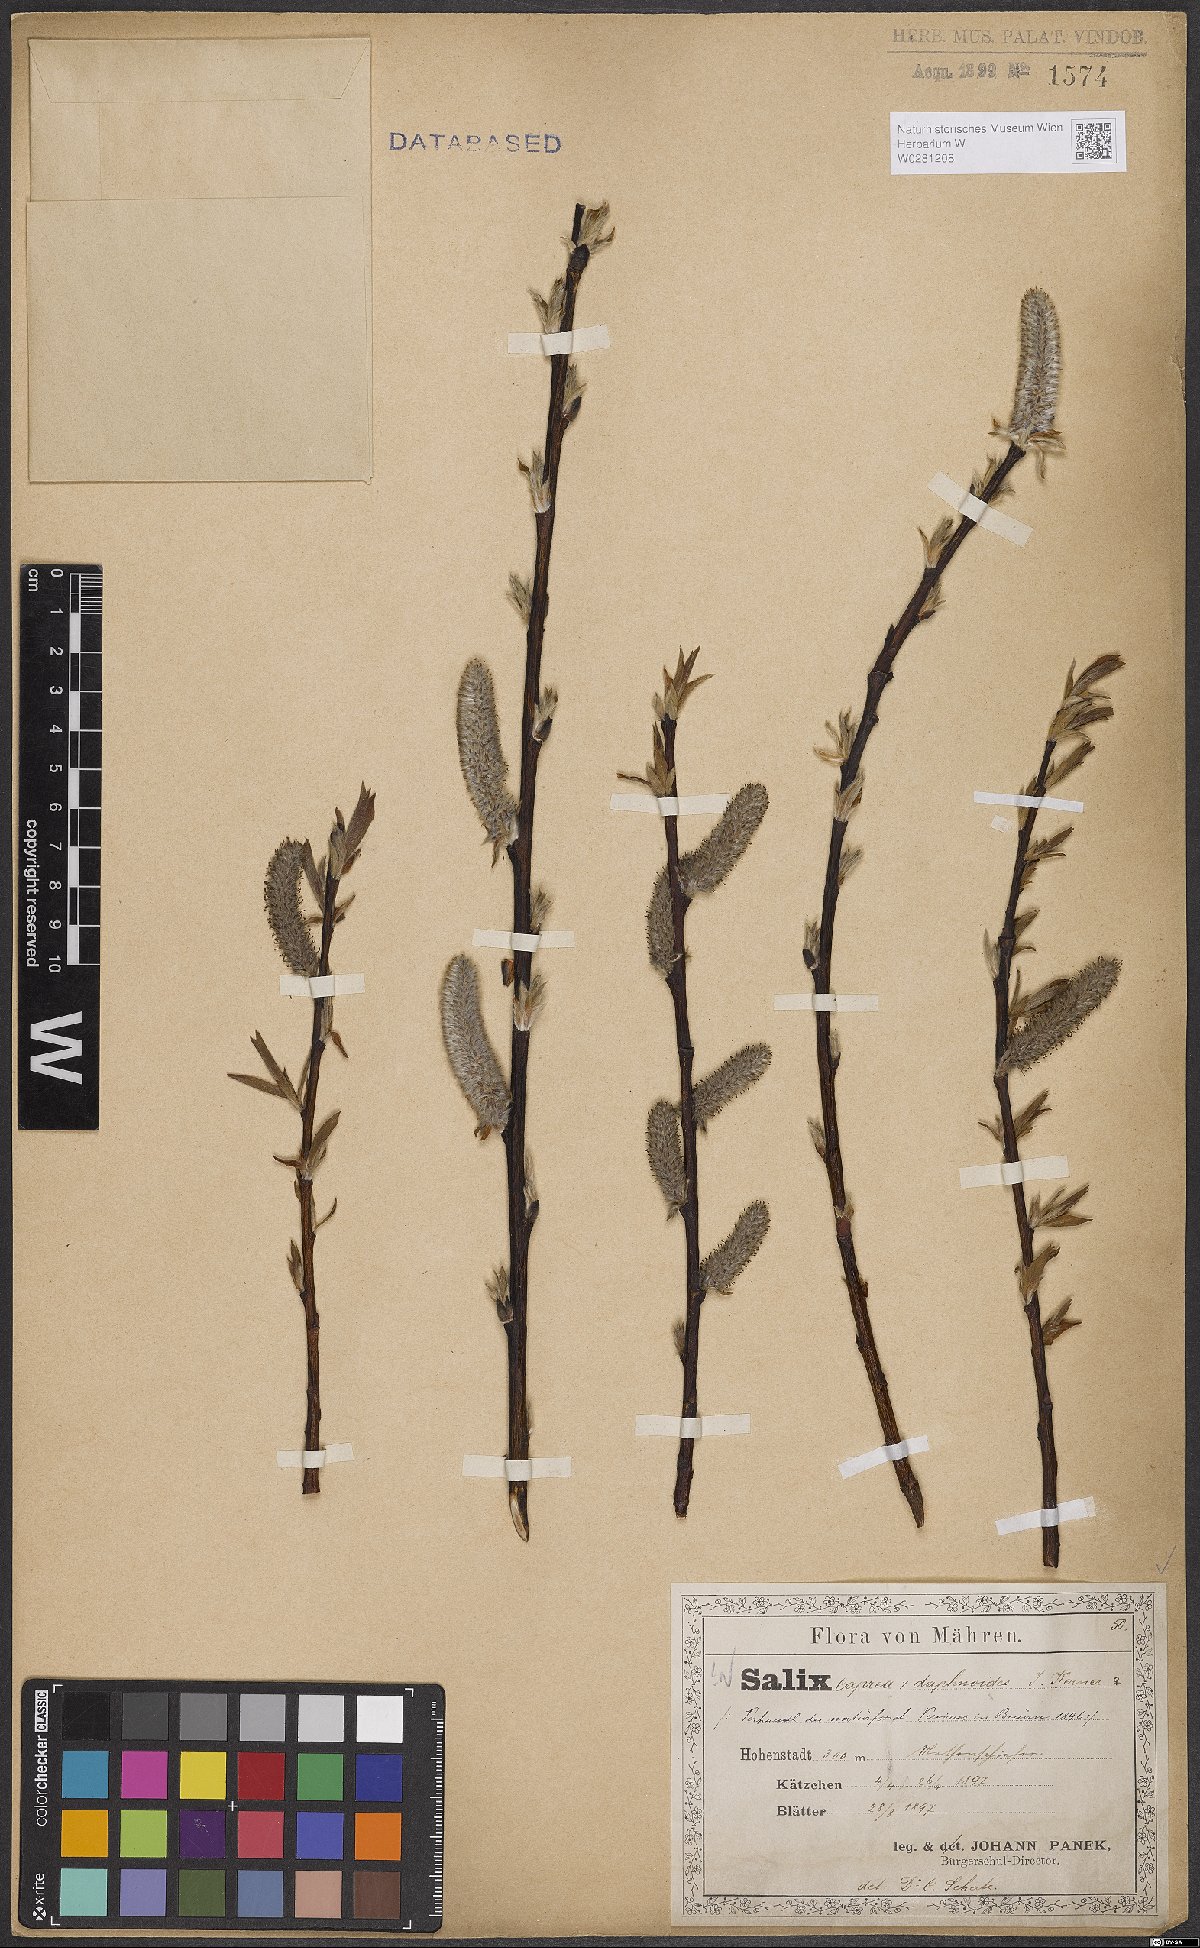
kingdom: Plantae
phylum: Tracheophyta
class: Magnoliopsida
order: Malpighiales
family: Salicaceae
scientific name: Salicaceae
